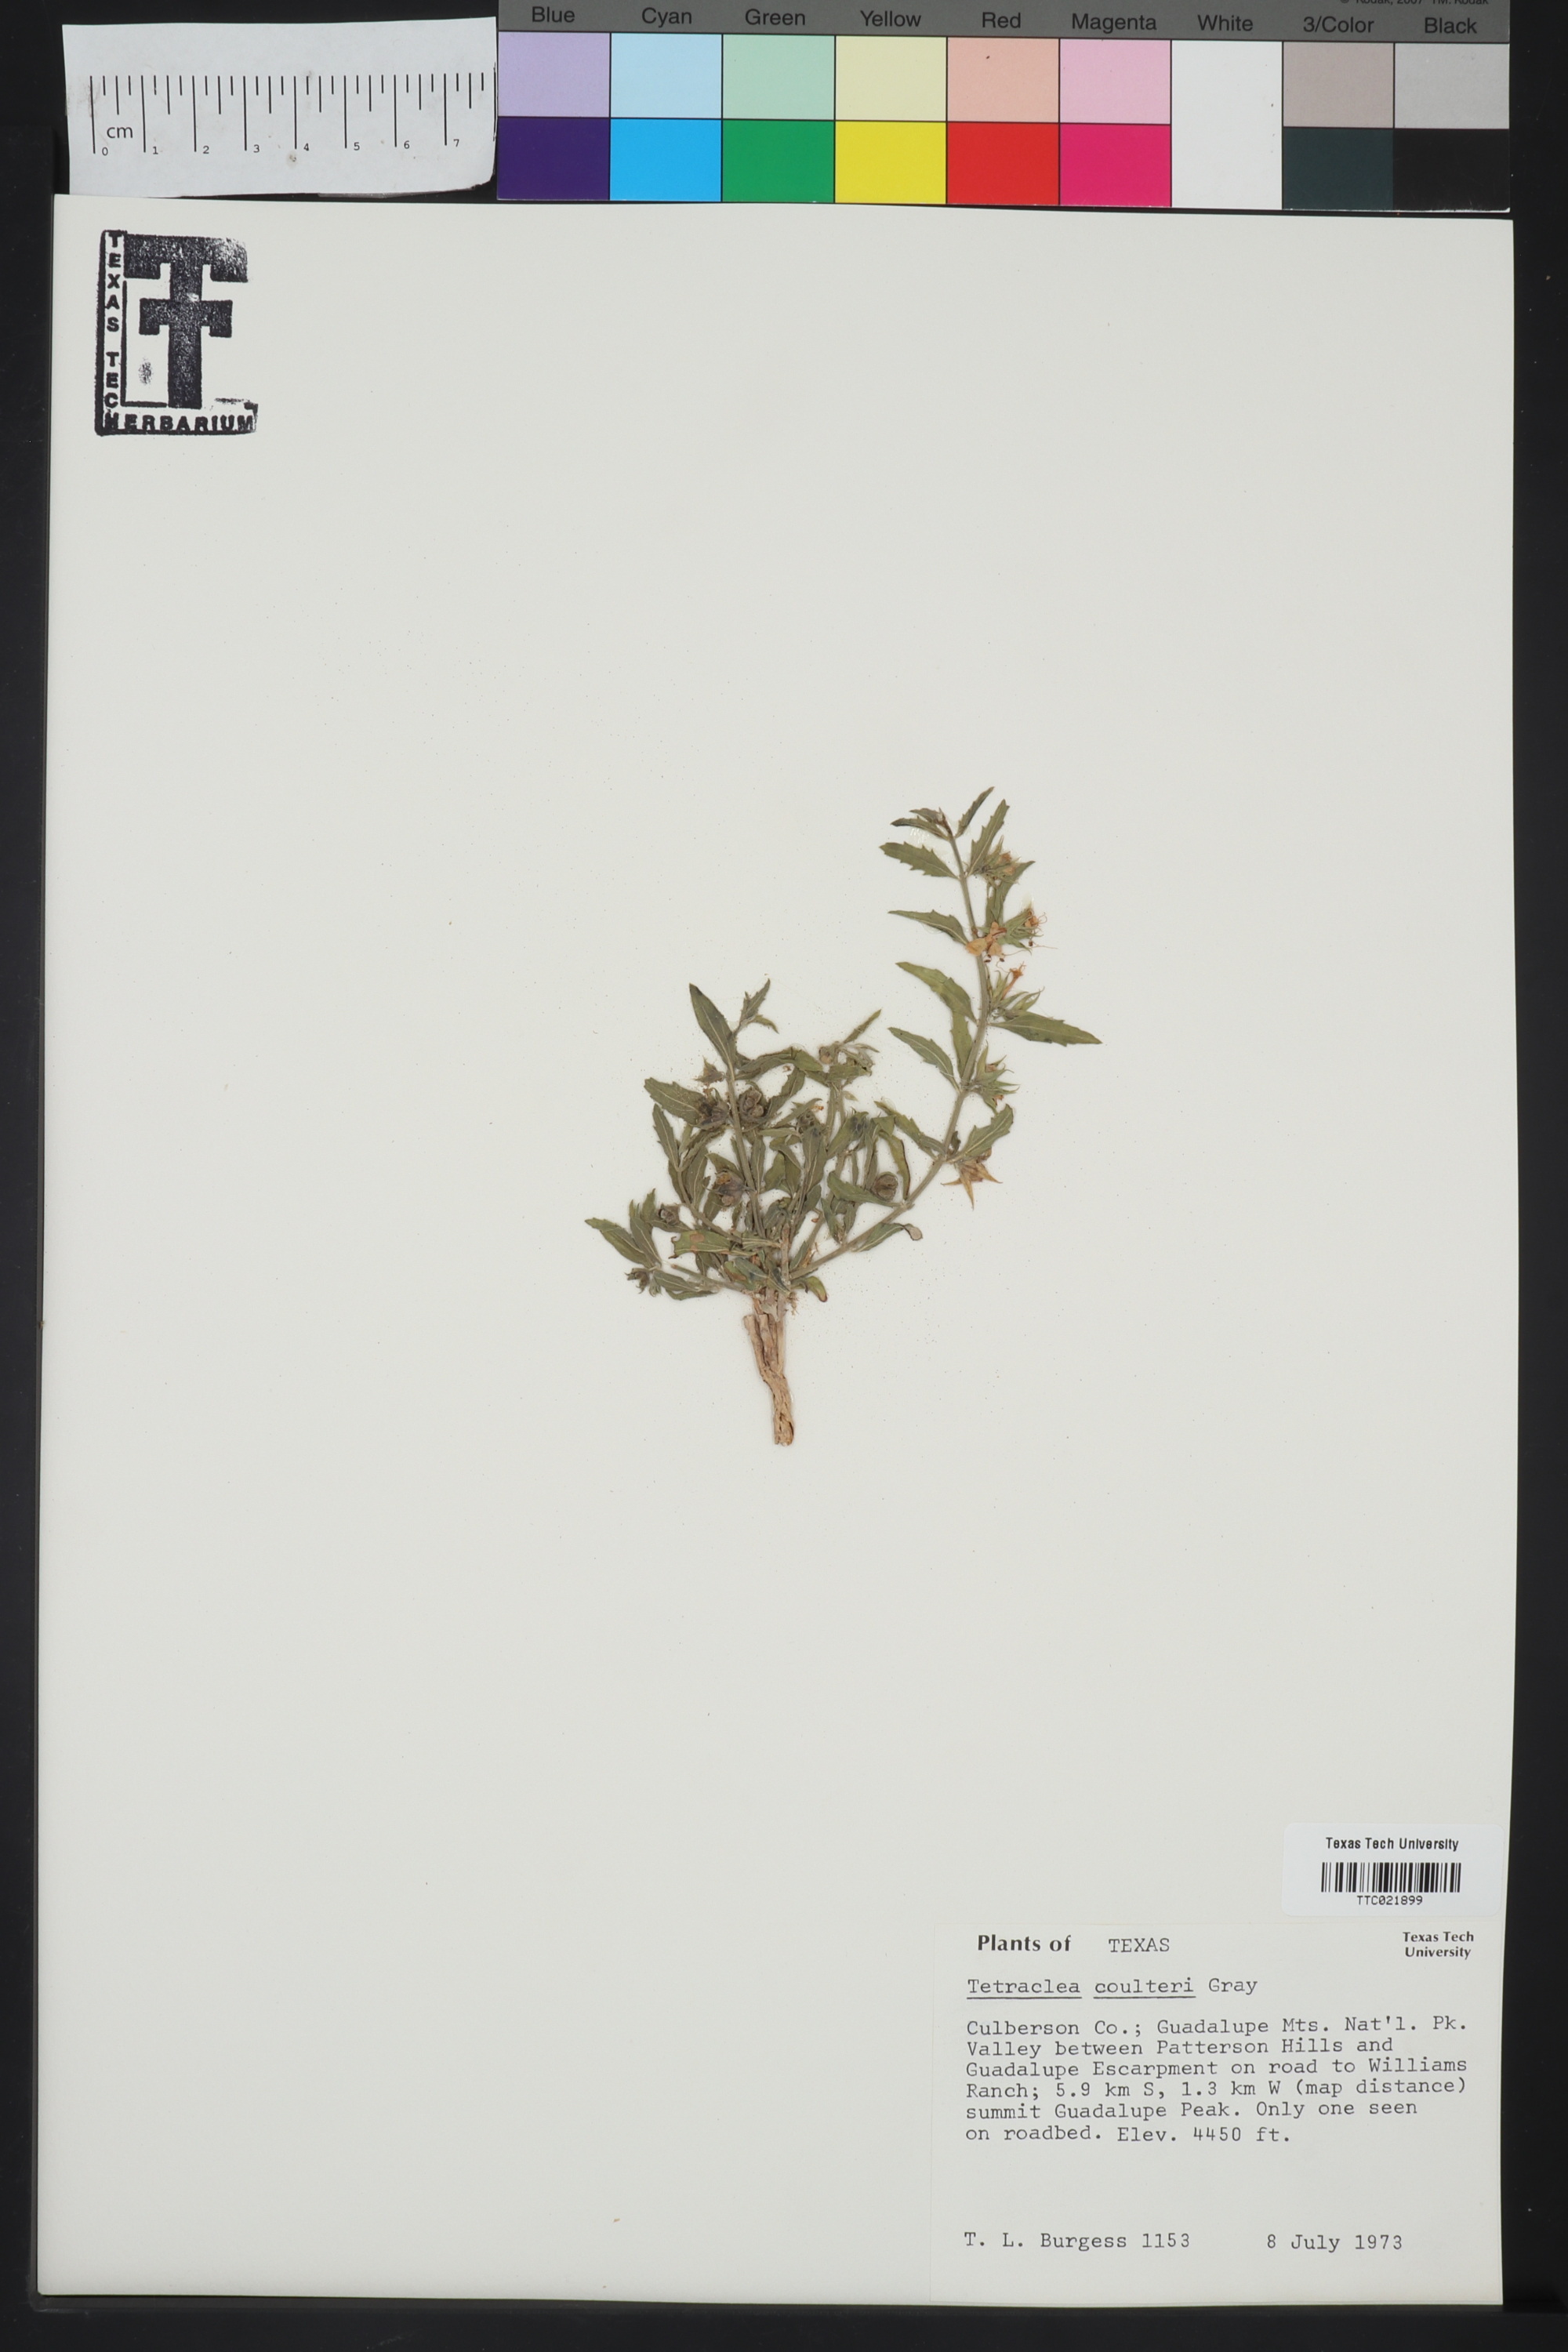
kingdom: Plantae
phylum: Tracheophyta
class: Magnoliopsida
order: Lamiales
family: Lamiaceae
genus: Tetraclea
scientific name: Tetraclea coulteri
